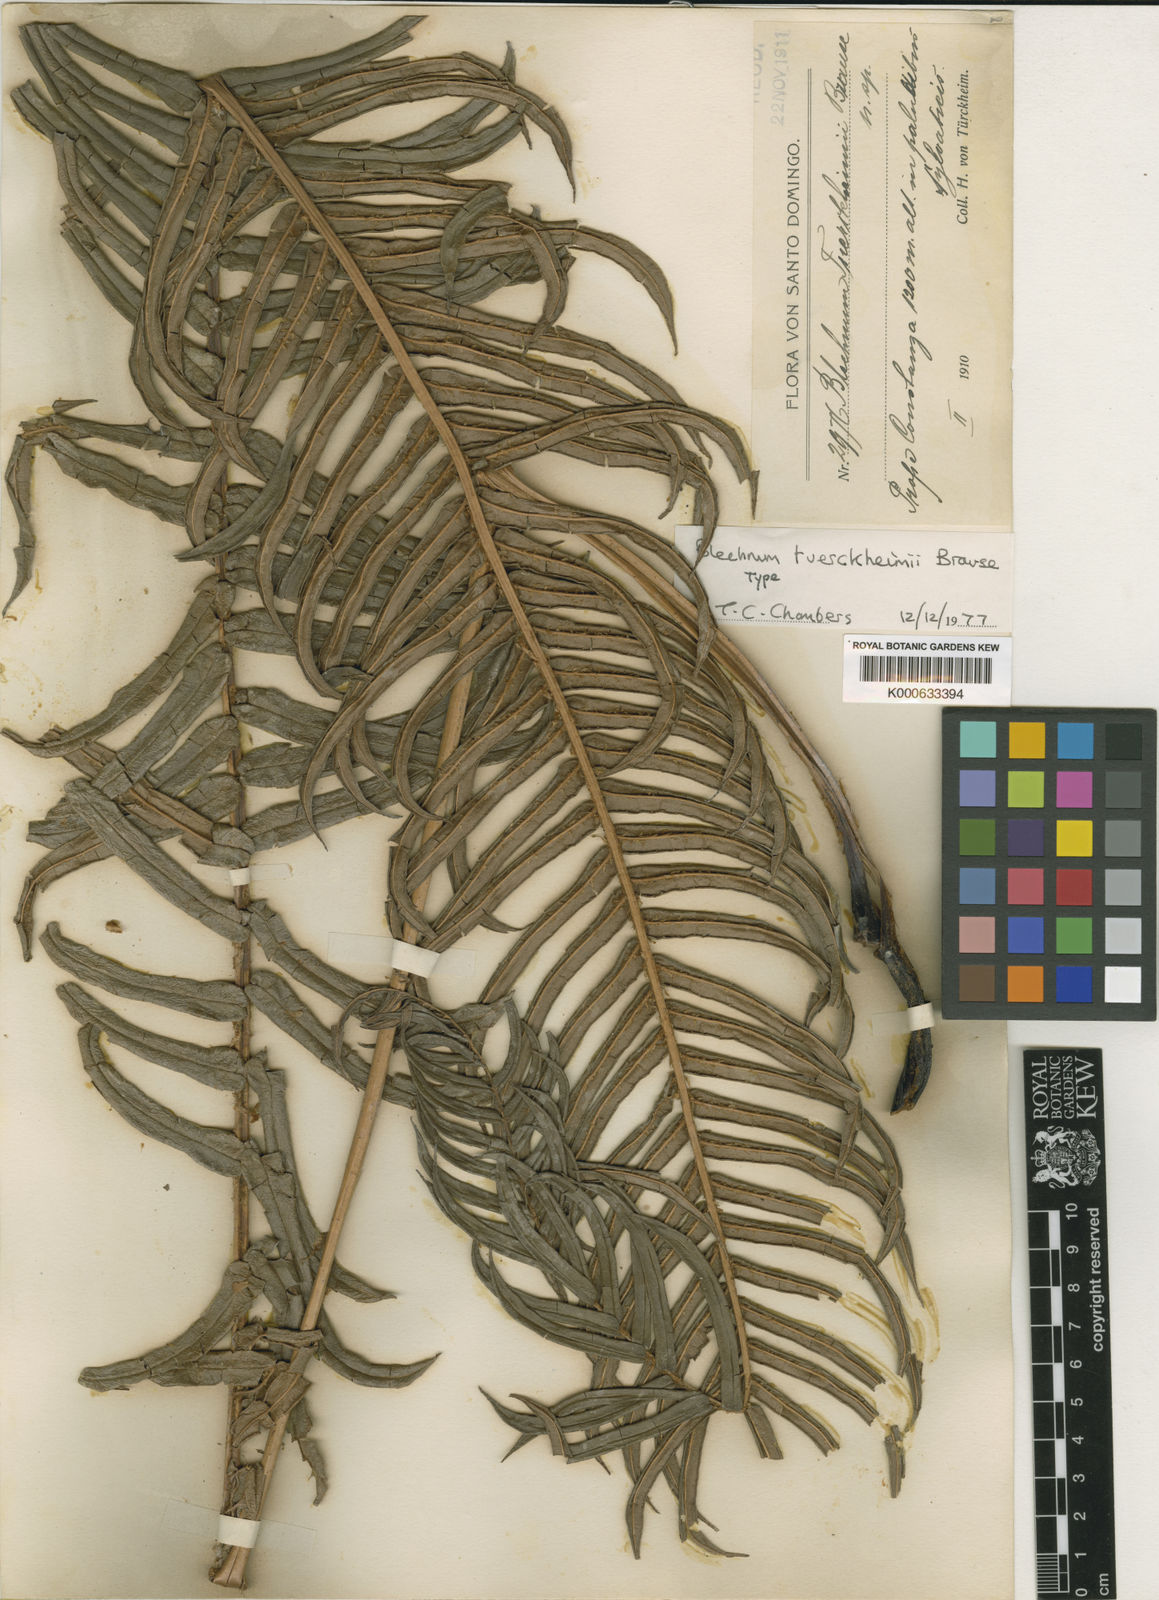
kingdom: Plantae
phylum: Tracheophyta
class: Polypodiopsida
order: Polypodiales
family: Blechnaceae
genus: Parablechnum
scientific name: Parablechnum tuerckheimii
